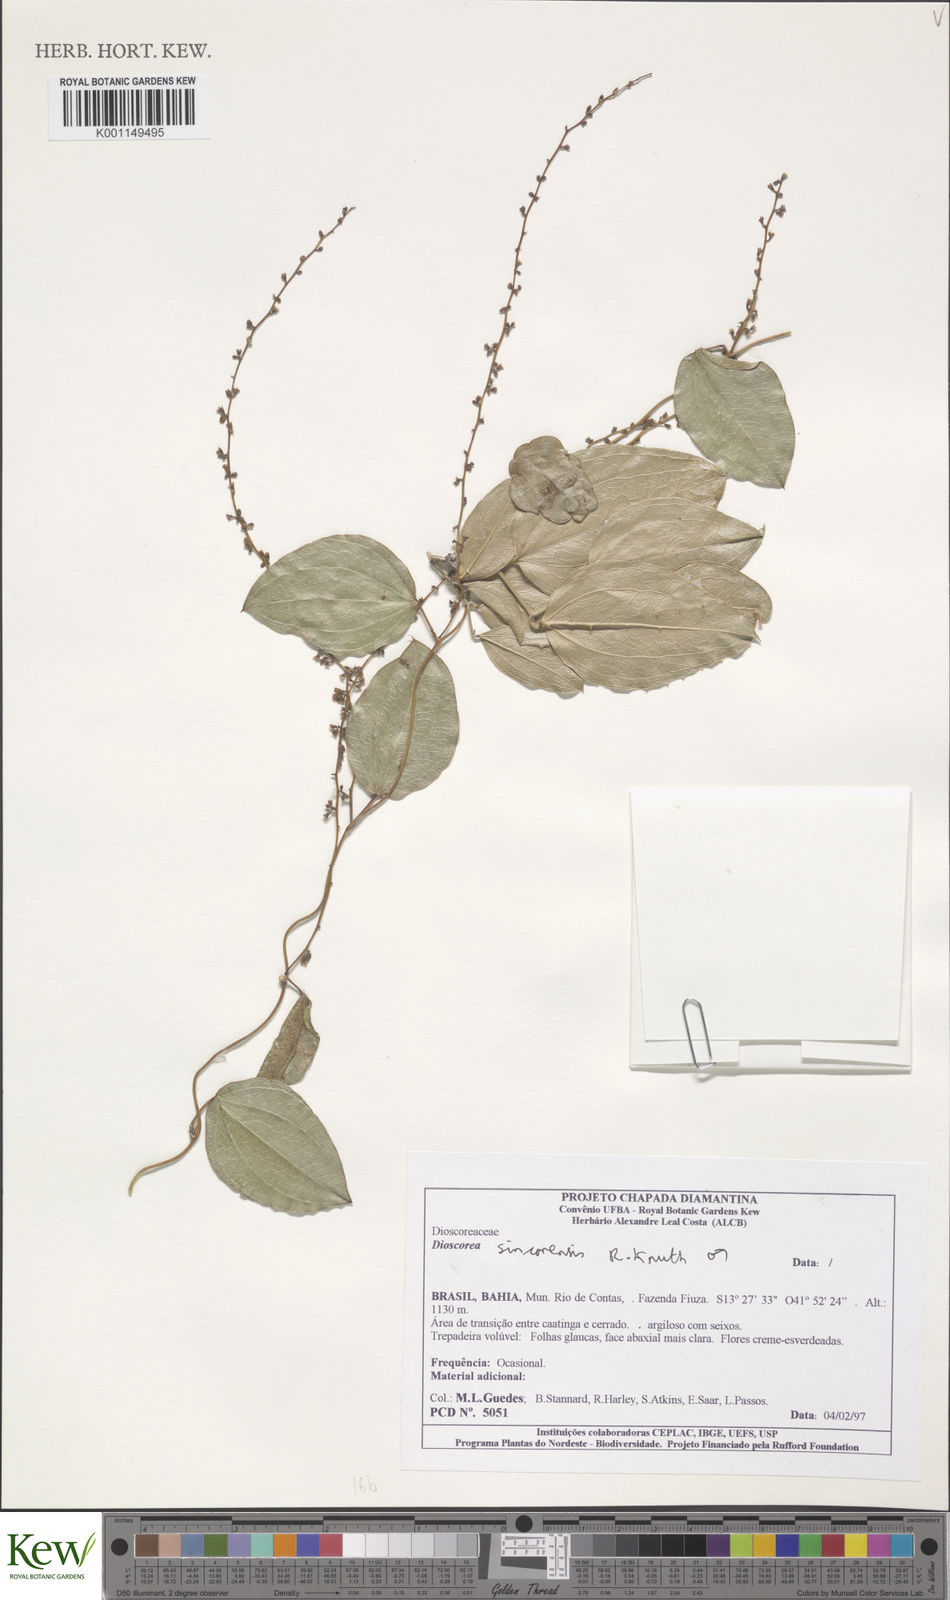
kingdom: Plantae
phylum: Tracheophyta
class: Liliopsida
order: Dioscoreales
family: Dioscoreaceae
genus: Dioscorea
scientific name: Dioscorea sincorensis
